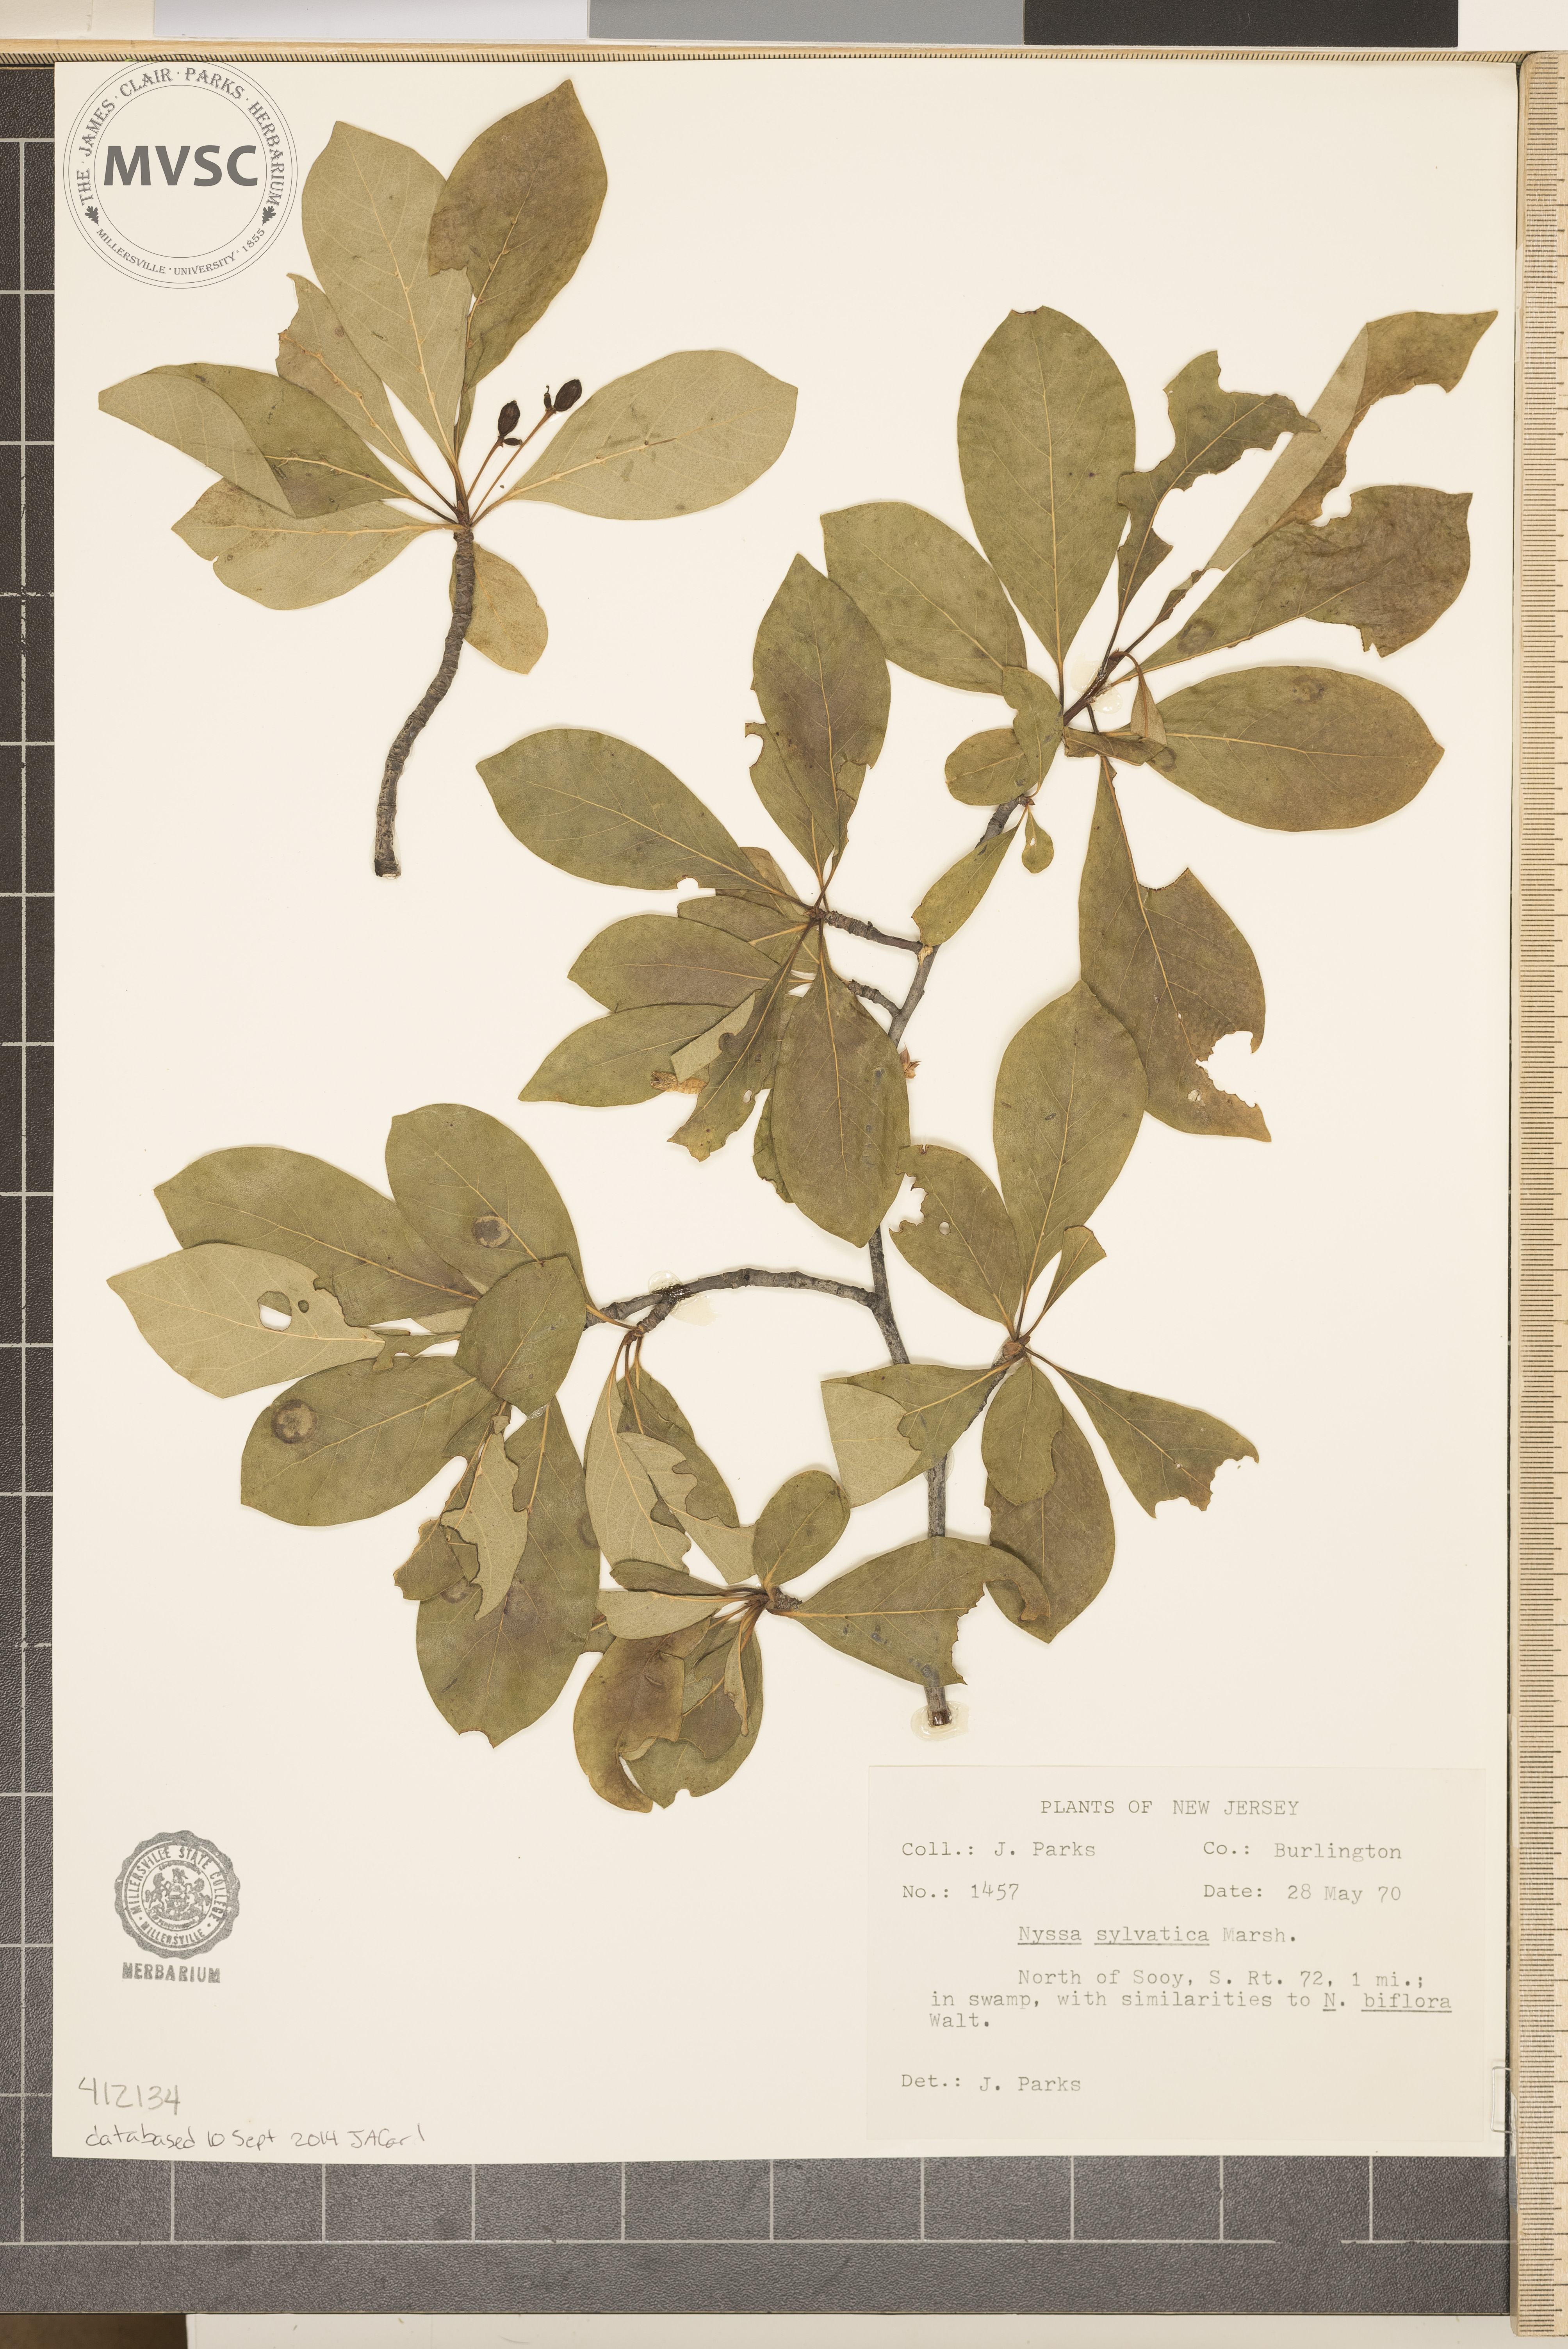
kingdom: Plantae
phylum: Tracheophyta
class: Magnoliopsida
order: Cornales
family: Nyssaceae
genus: Nyssa
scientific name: Nyssa sylvatica
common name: Black tupelo
